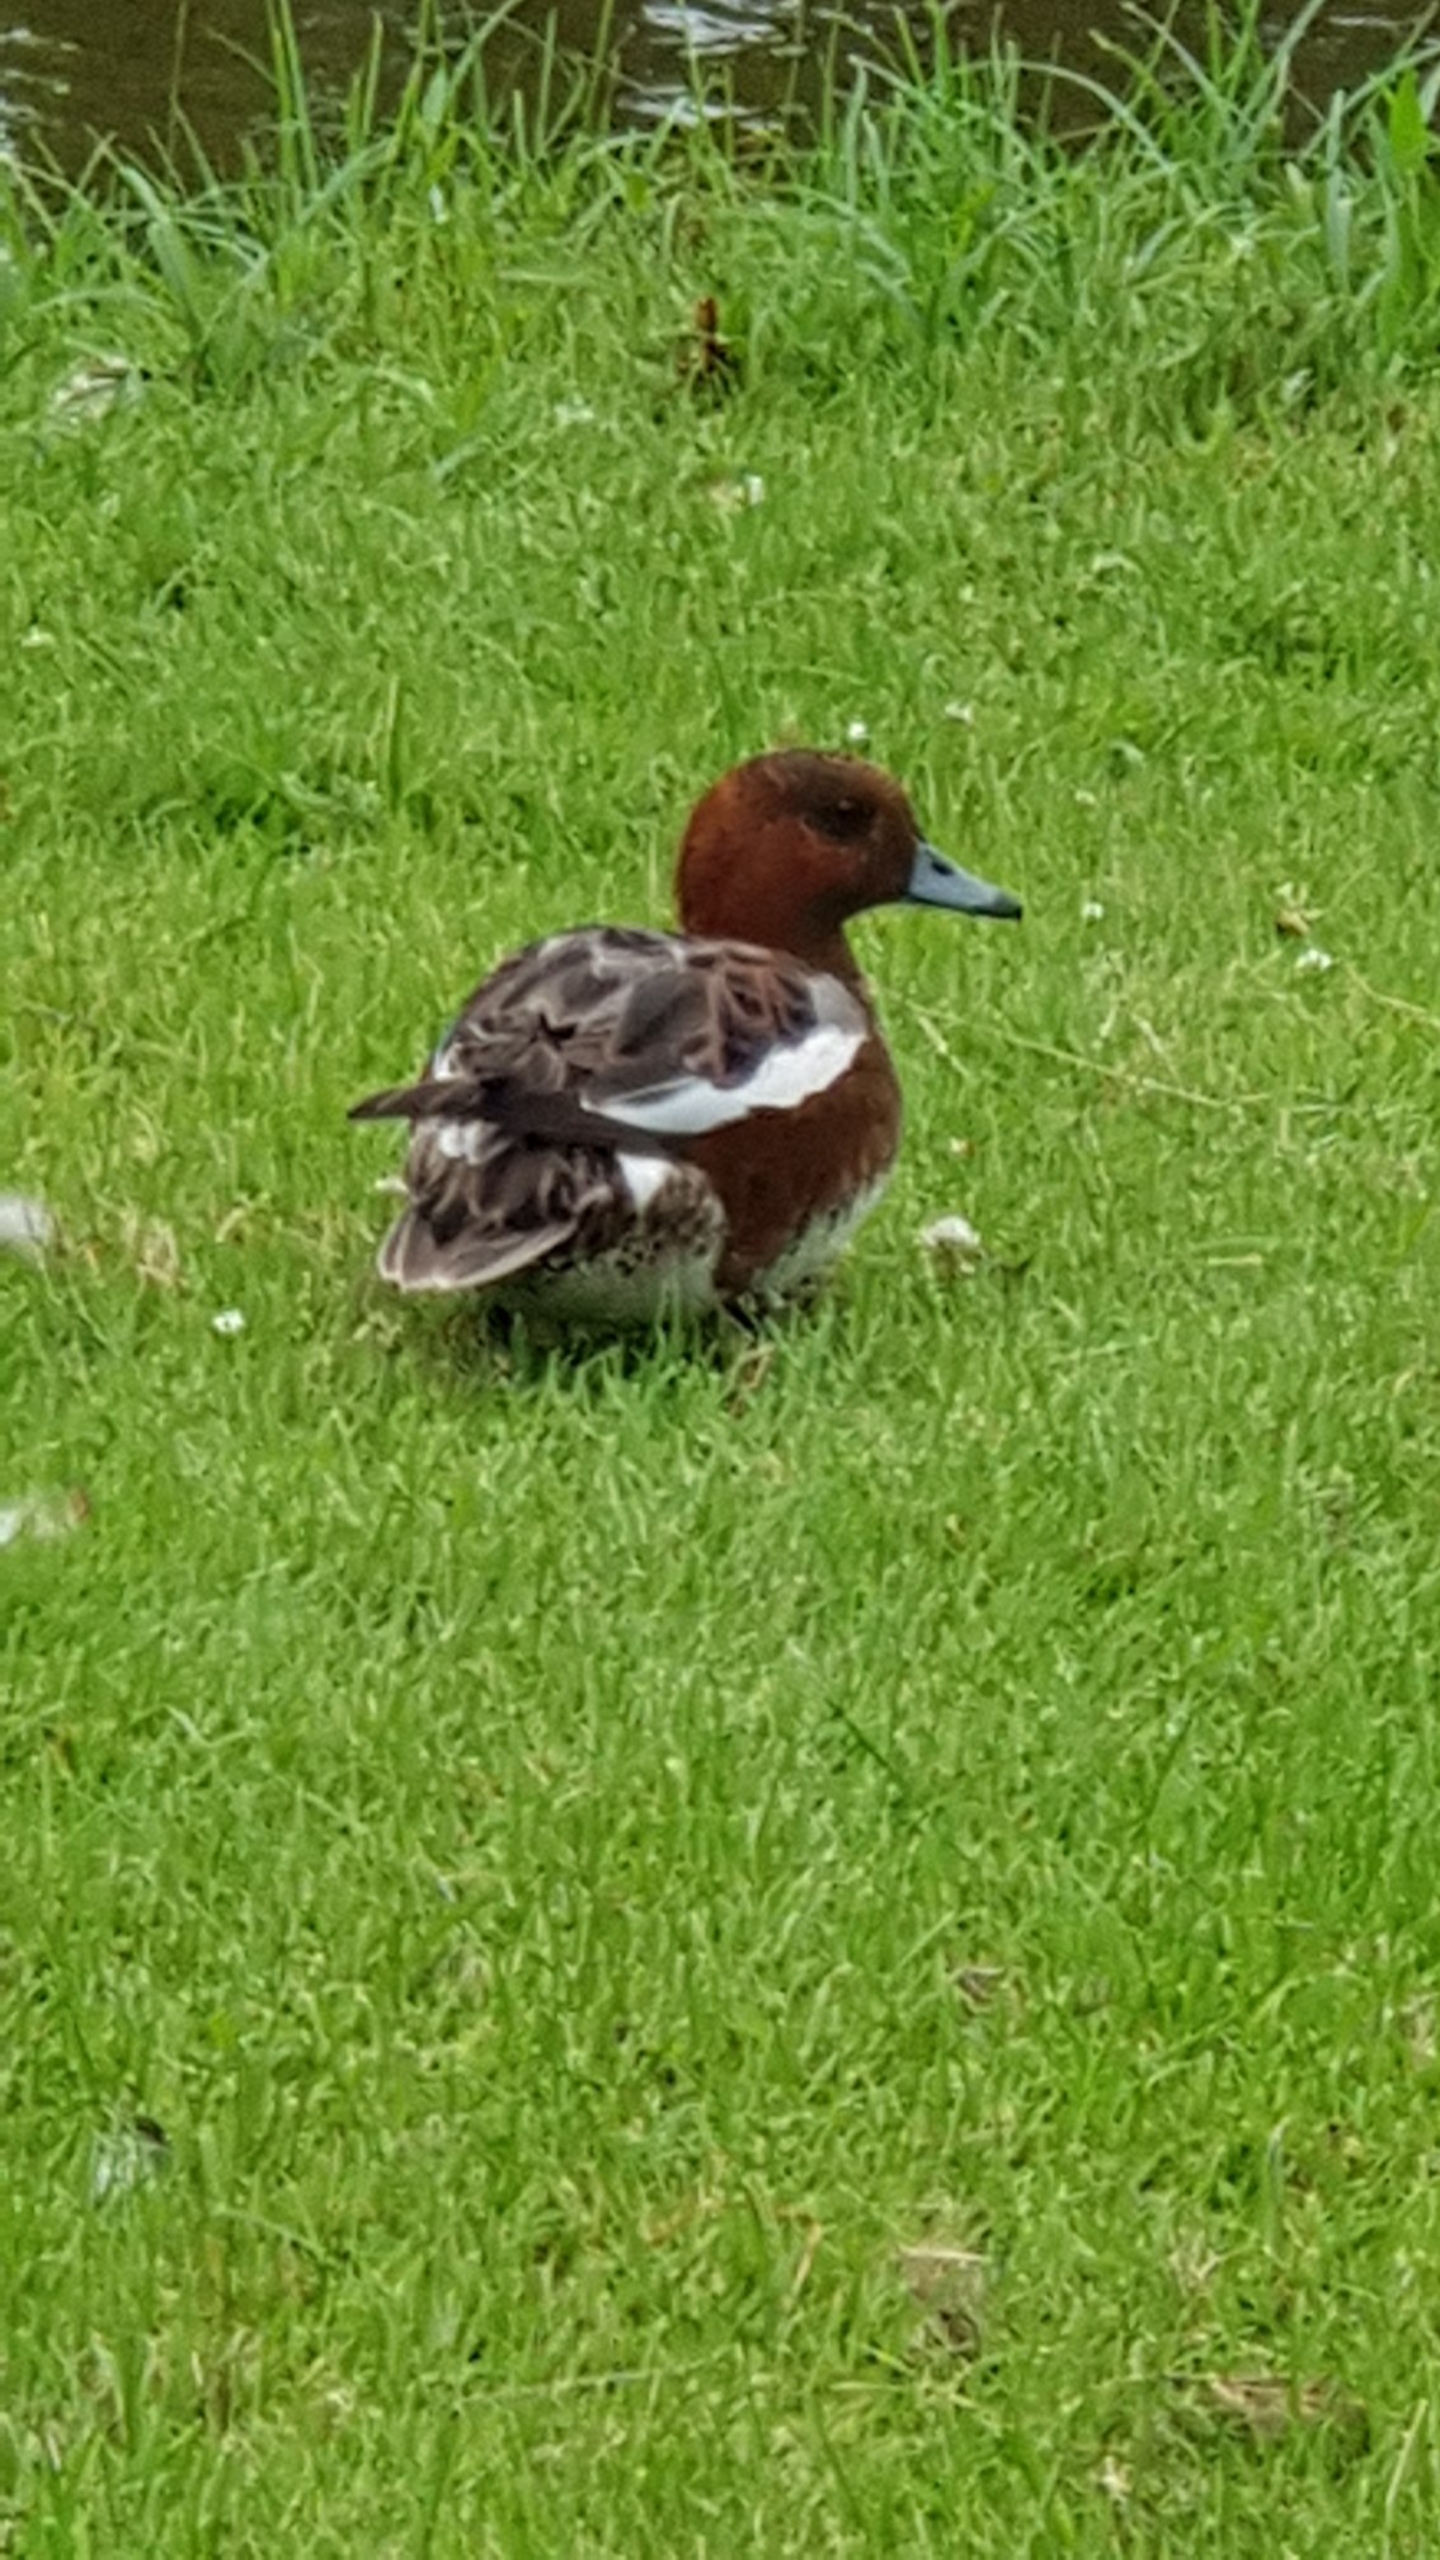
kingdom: Animalia
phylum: Chordata
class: Aves
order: Anseriformes
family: Anatidae
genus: Mareca
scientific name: Mareca penelope
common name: Pibeand
